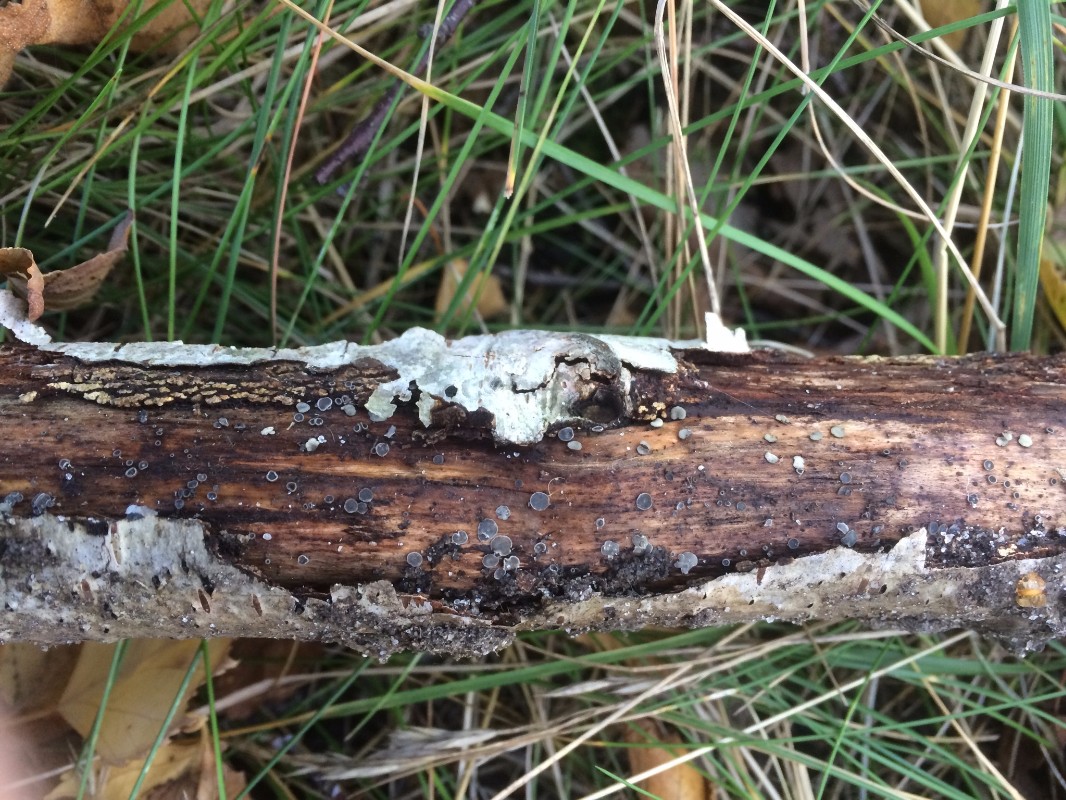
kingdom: Fungi
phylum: Ascomycota
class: Leotiomycetes
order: Helotiales
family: Mollisiaceae
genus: Mollisia
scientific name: Mollisia
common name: gråskive
